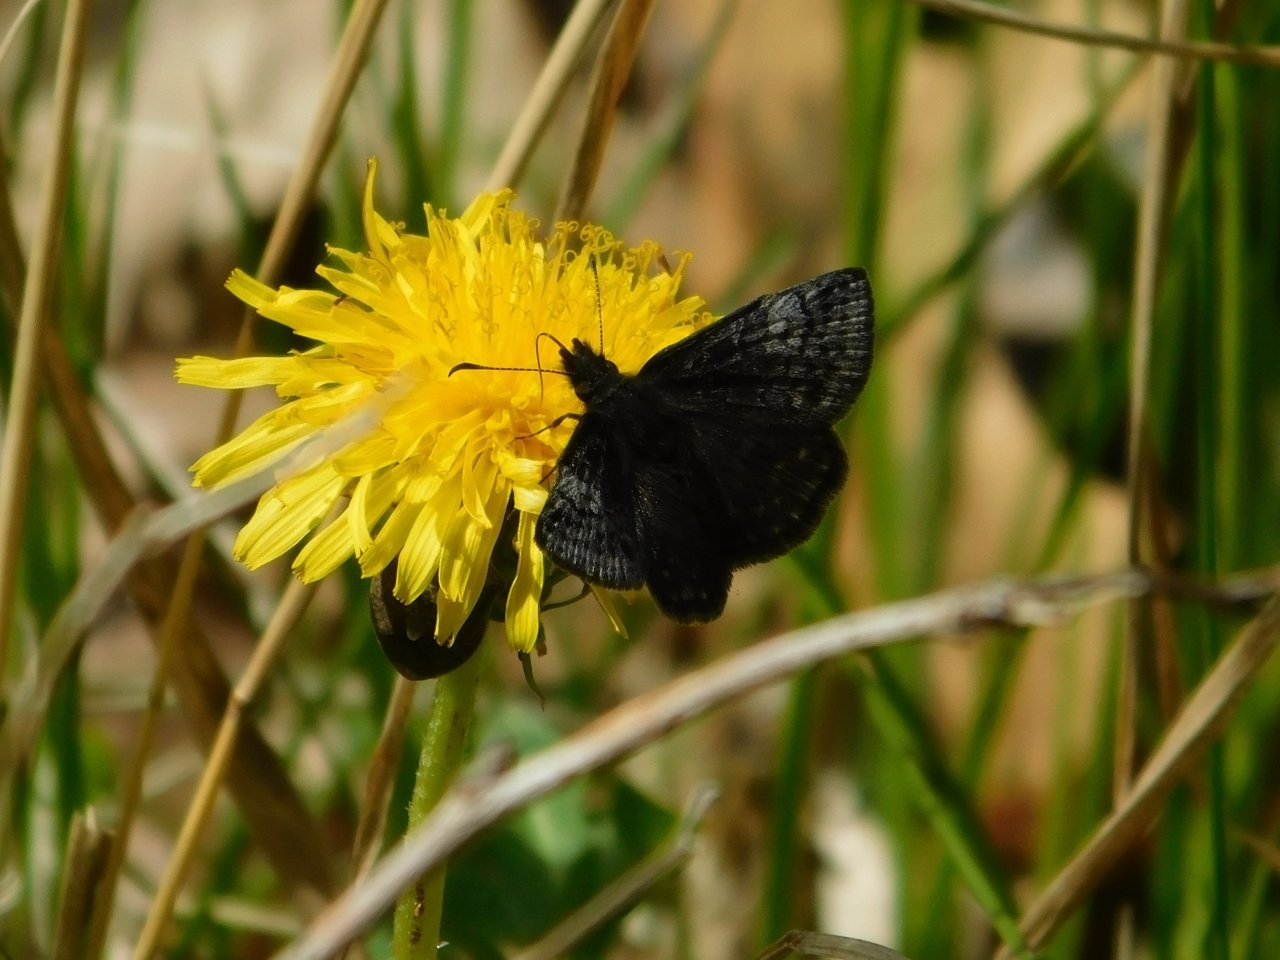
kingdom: Animalia
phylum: Arthropoda
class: Insecta
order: Lepidoptera
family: Hesperiidae
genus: Erynnis
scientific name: Erynnis icelus
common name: Dreamy Duskywing
